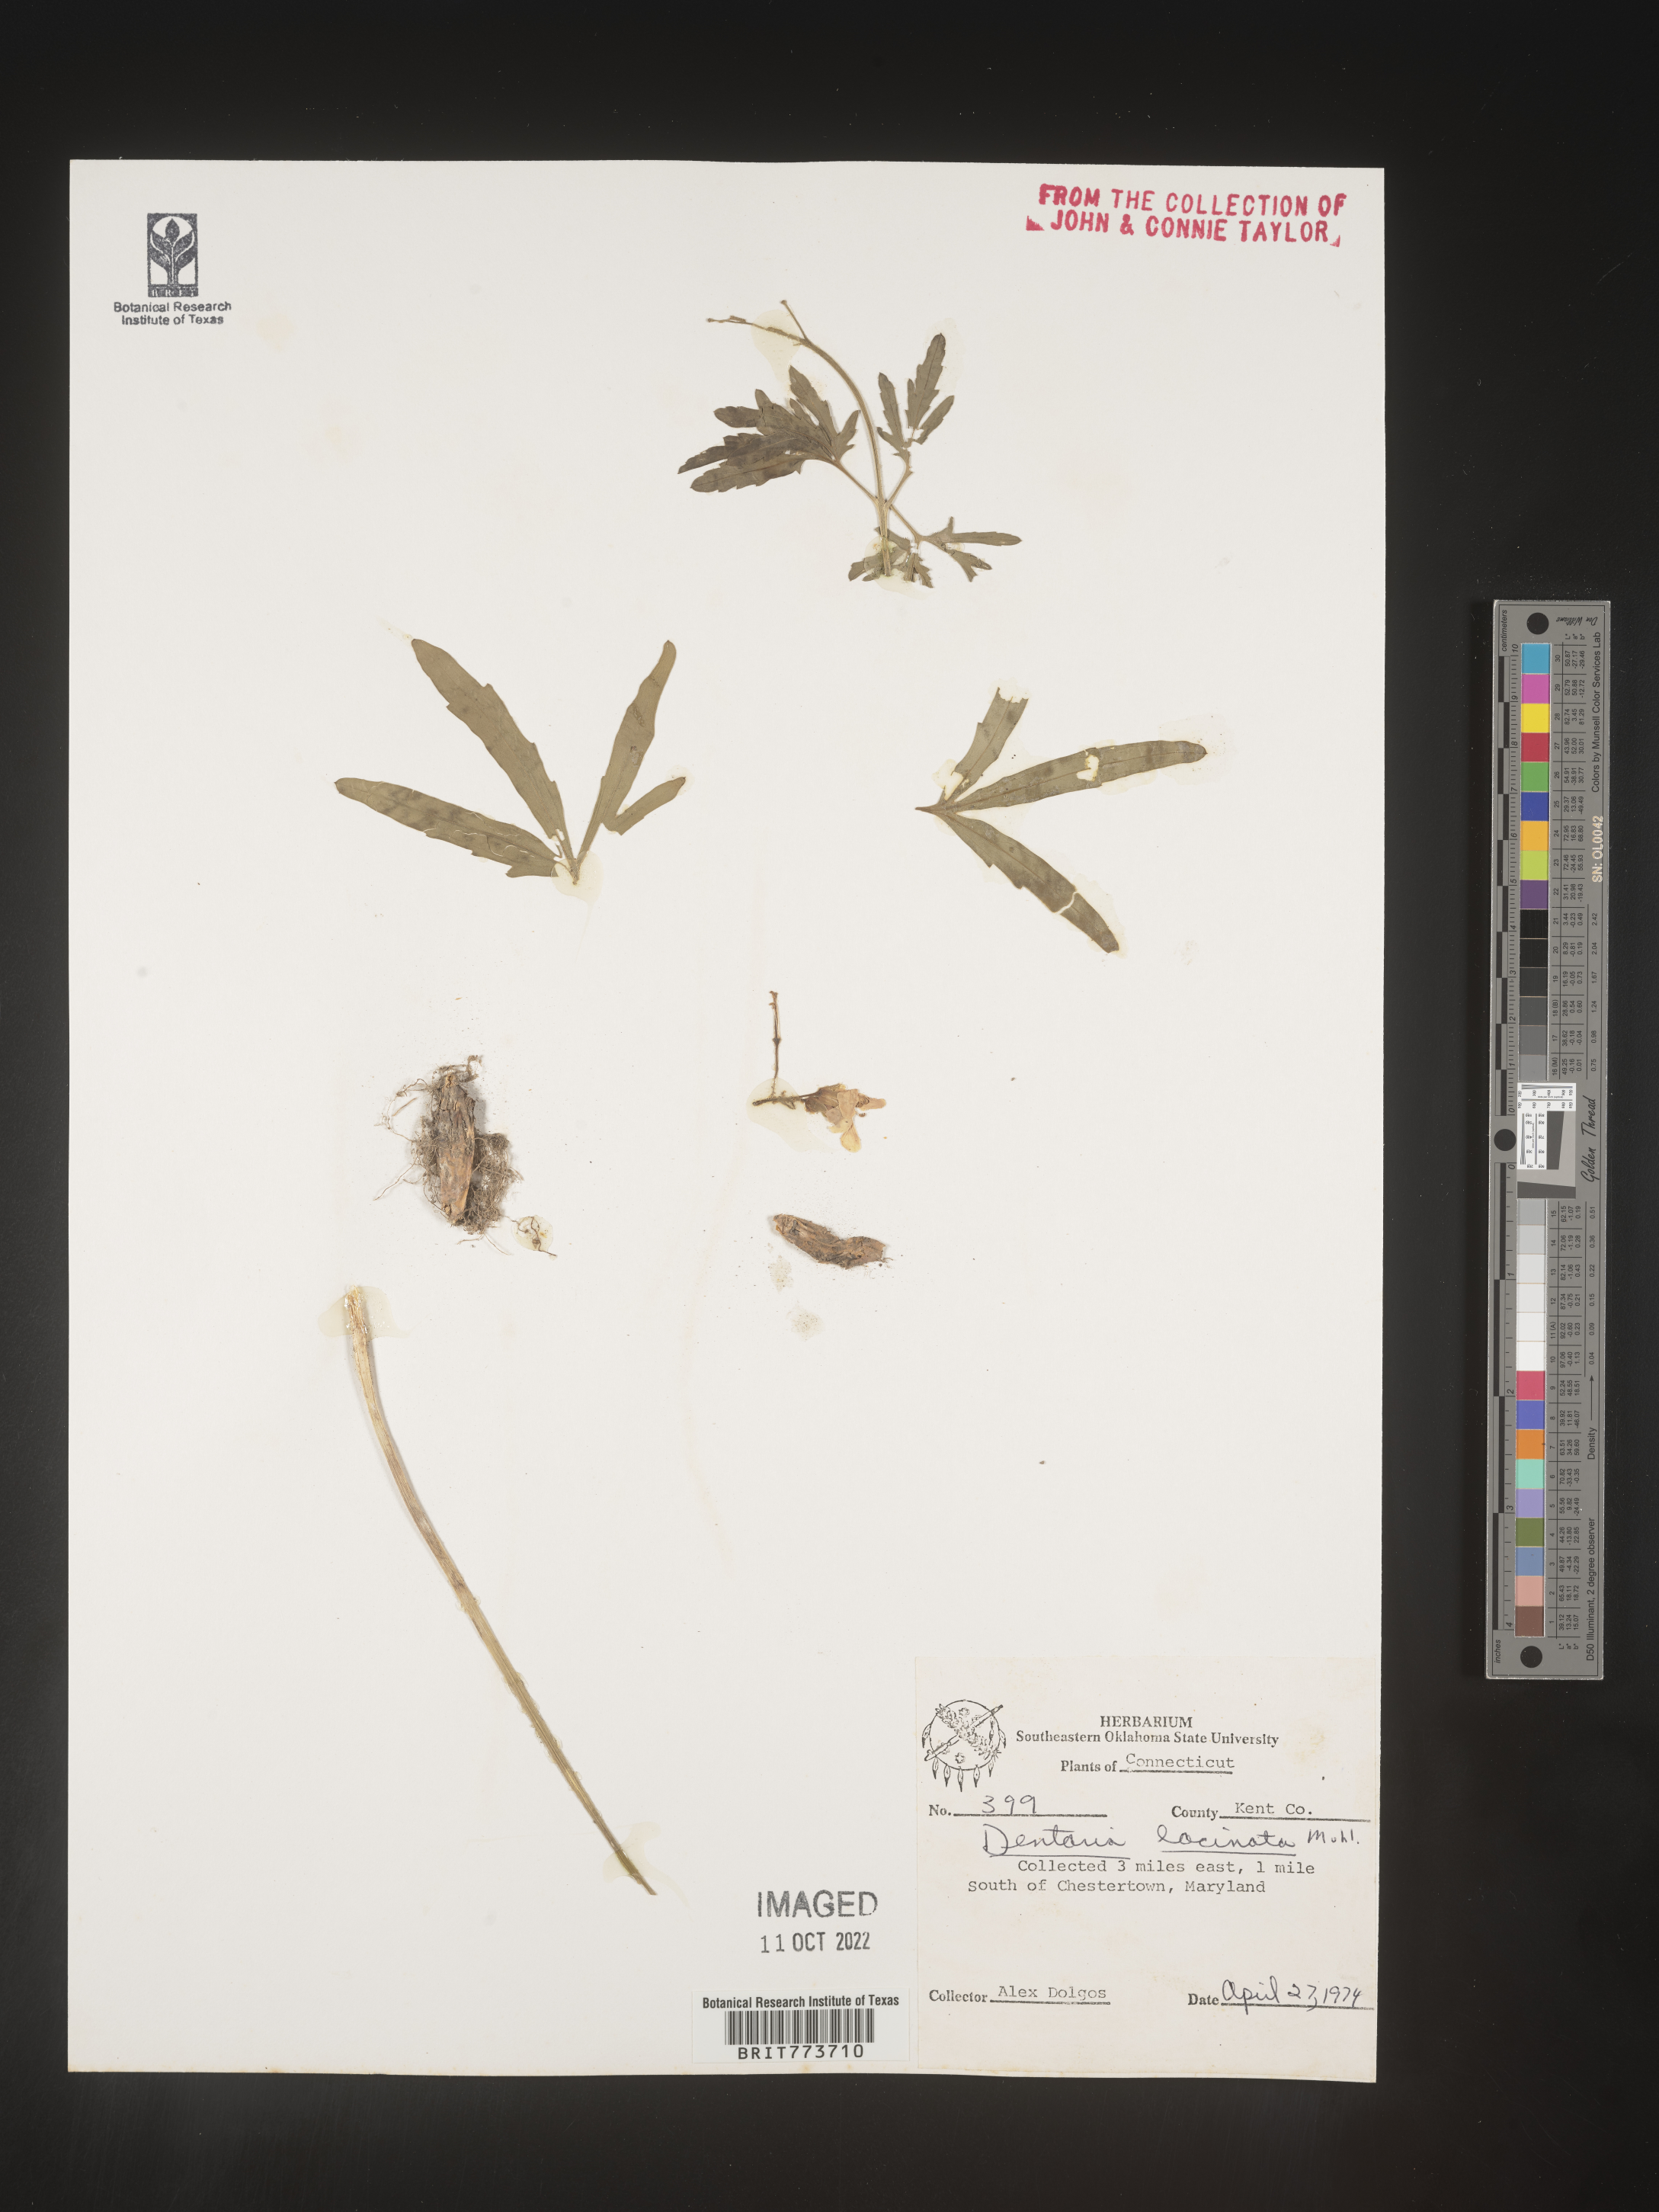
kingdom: Plantae
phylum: Tracheophyta
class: Magnoliopsida
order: Brassicales
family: Brassicaceae
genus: Rorippa
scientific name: Rorippa laciniata
